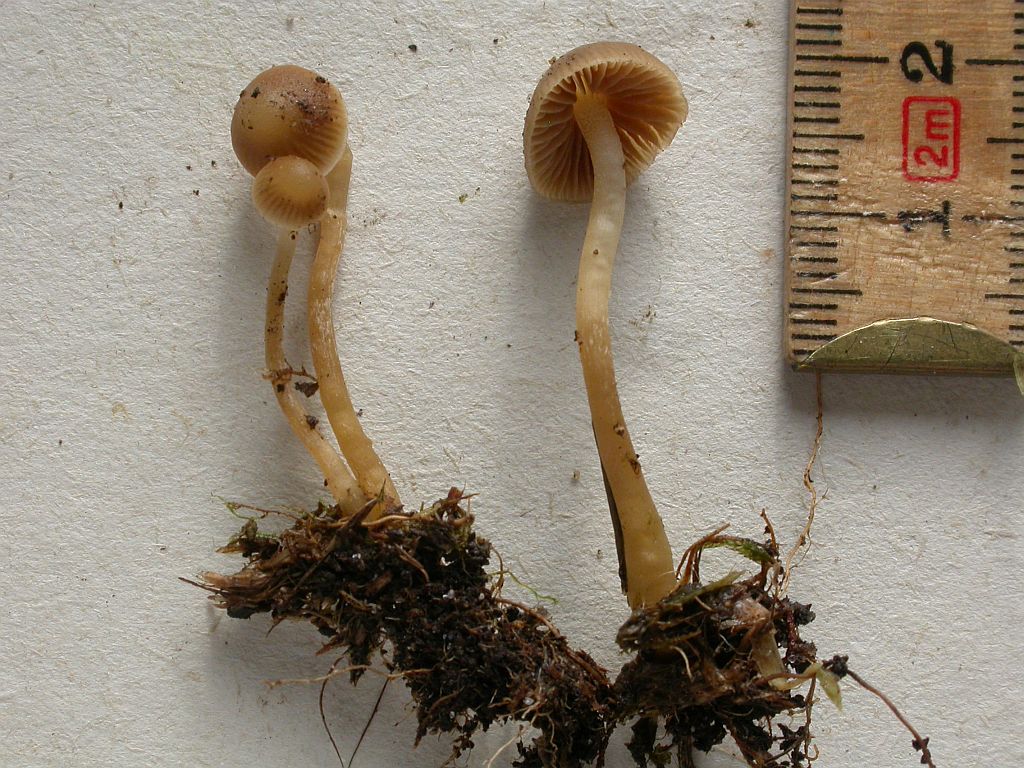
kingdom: Fungi
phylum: Basidiomycota
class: Agaricomycetes
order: Agaricales
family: Hymenogastraceae
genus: Galerina
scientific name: Galerina mniophila
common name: olivengul hjelmhat
